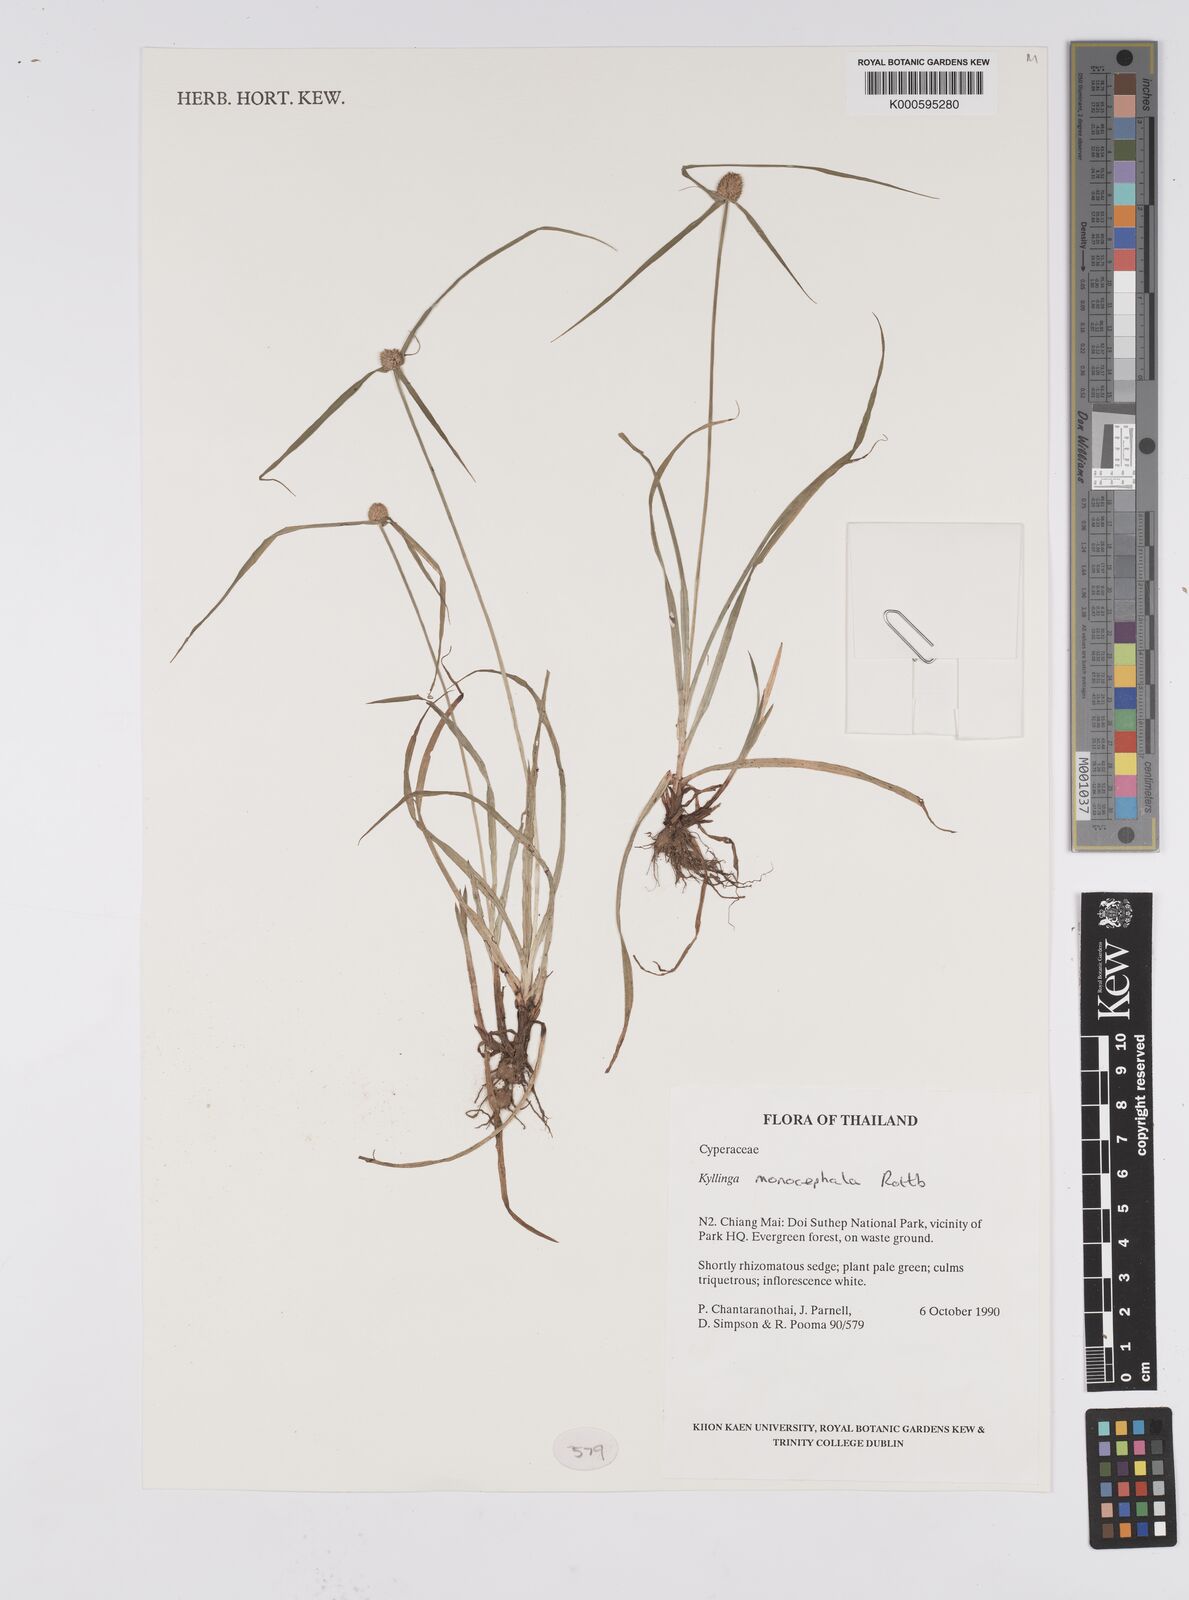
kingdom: Plantae
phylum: Tracheophyta
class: Liliopsida
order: Poales
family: Cyperaceae
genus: Cyperus
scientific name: Cyperus mindorensis
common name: Flatsedge
